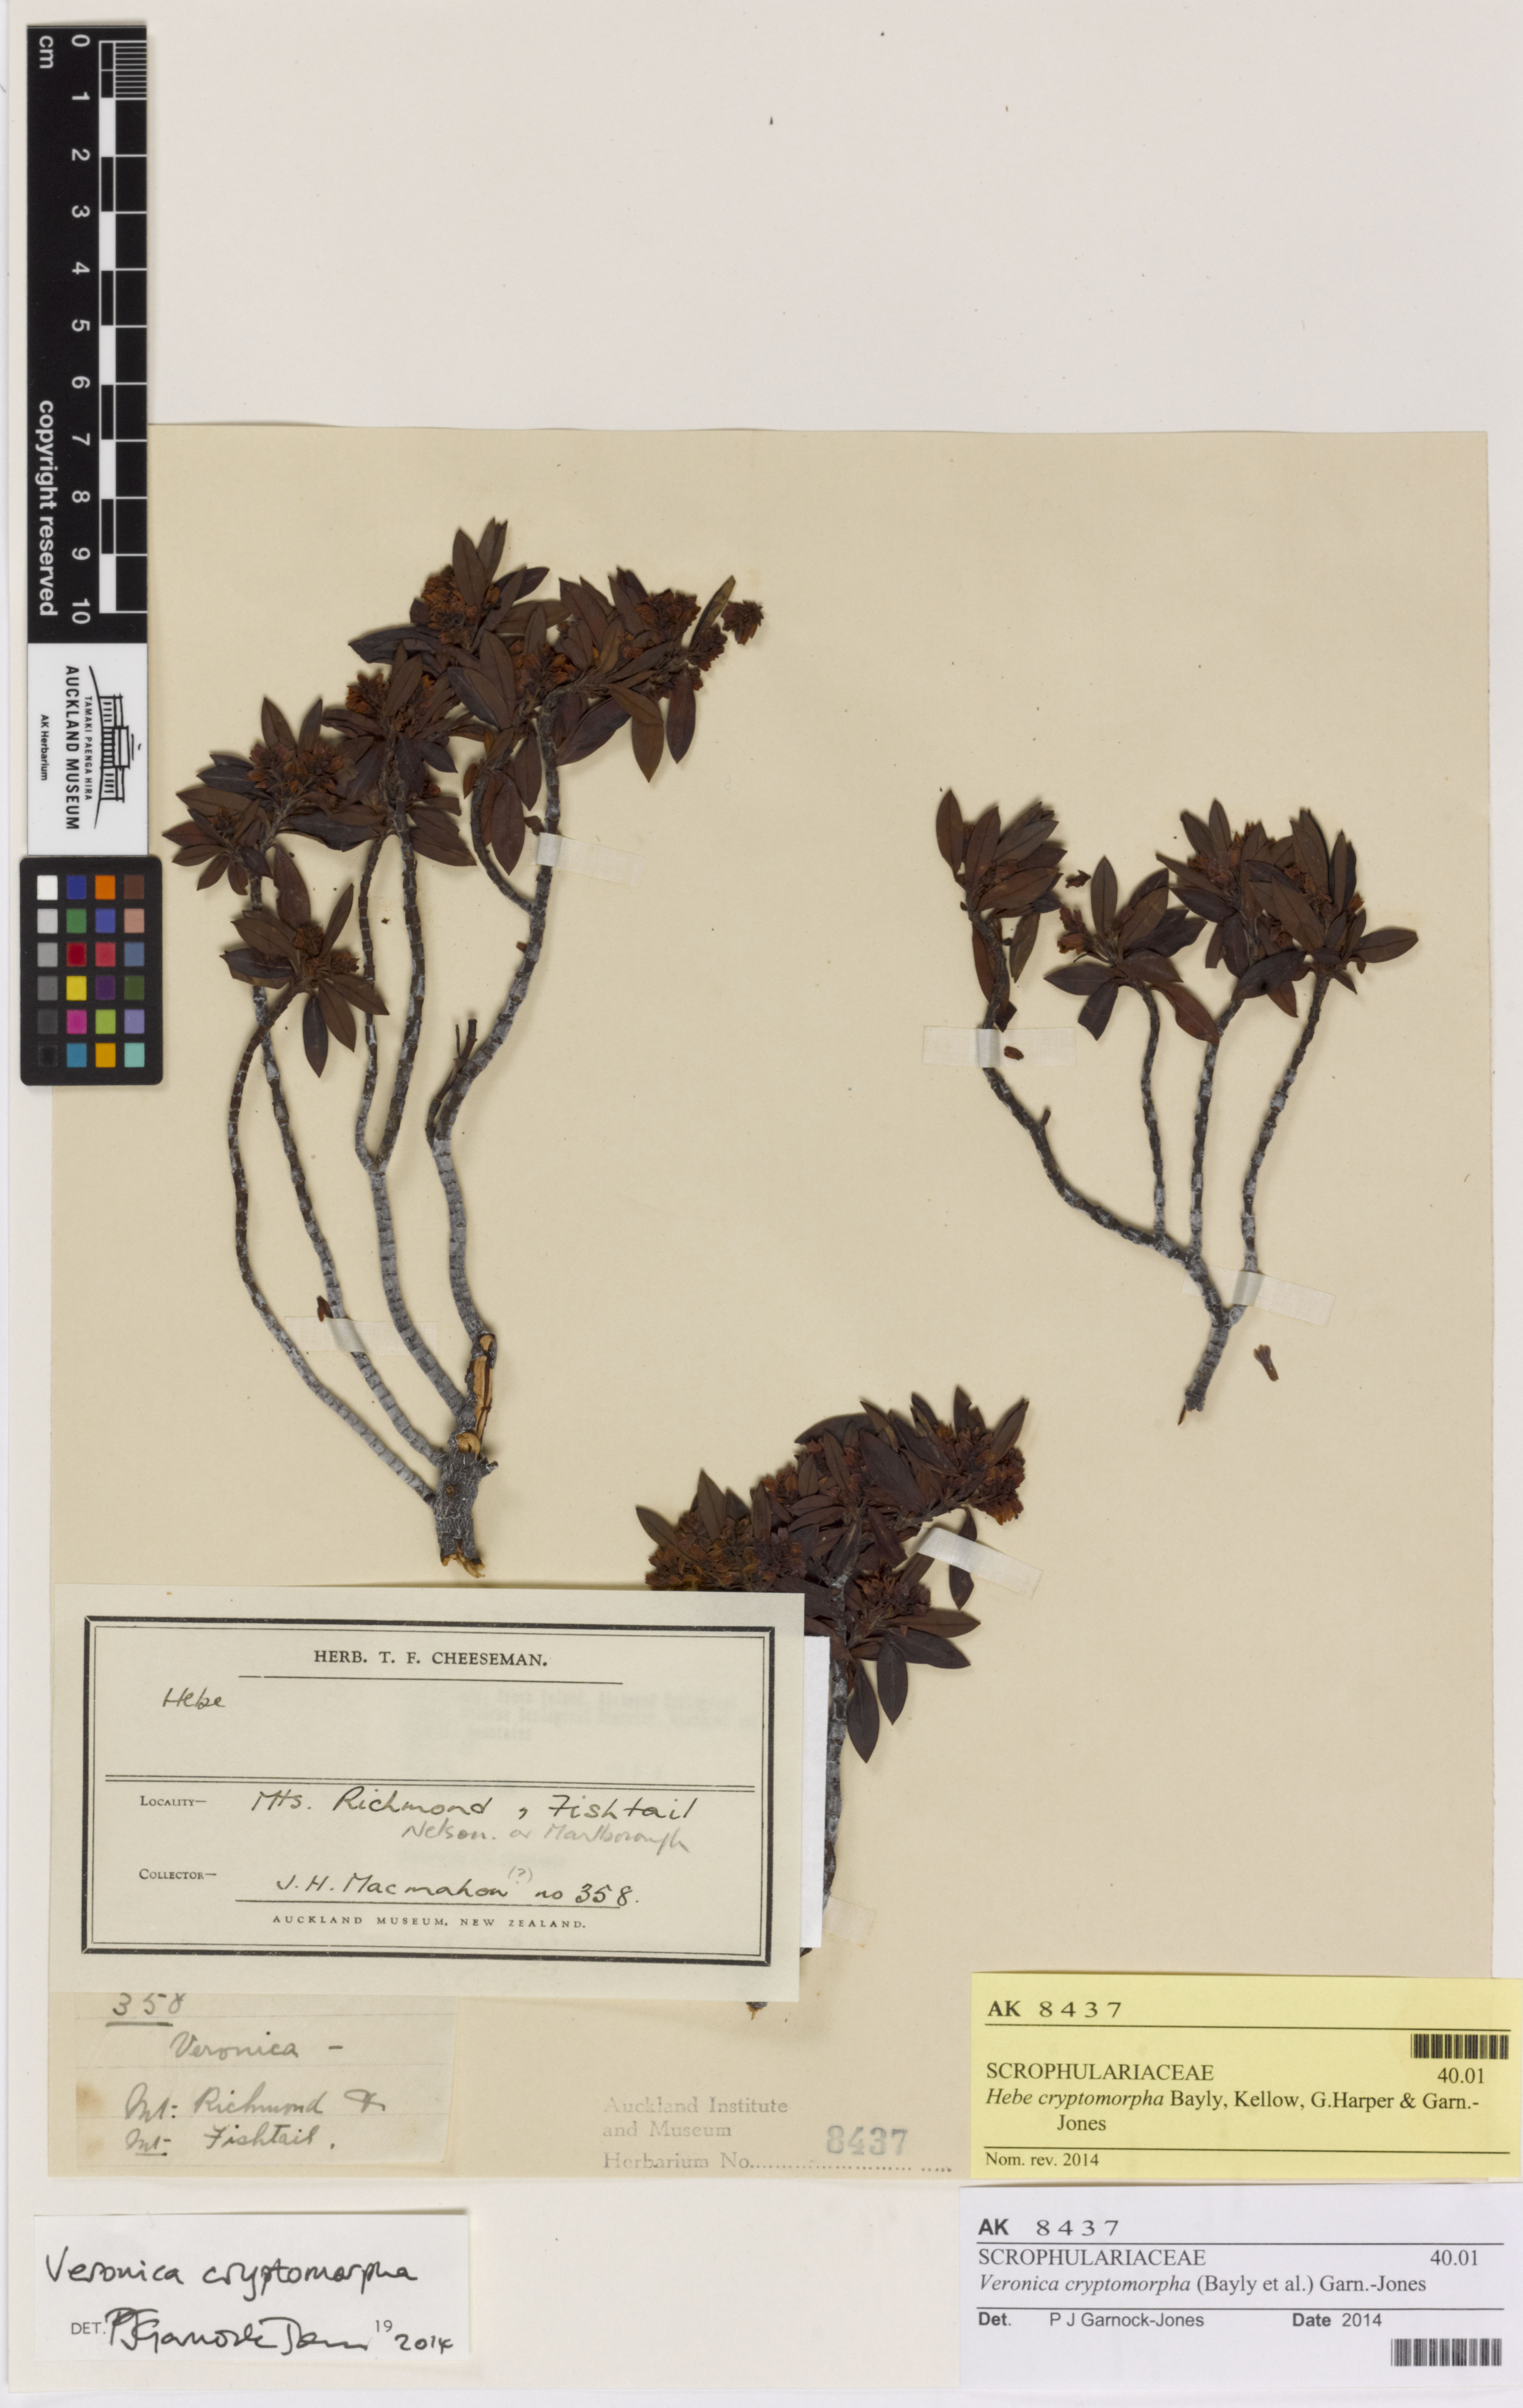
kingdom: Plantae
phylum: Tracheophyta
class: Magnoliopsida
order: Lamiales
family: Plantaginaceae
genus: Veronica
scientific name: Veronica brachysiphon
